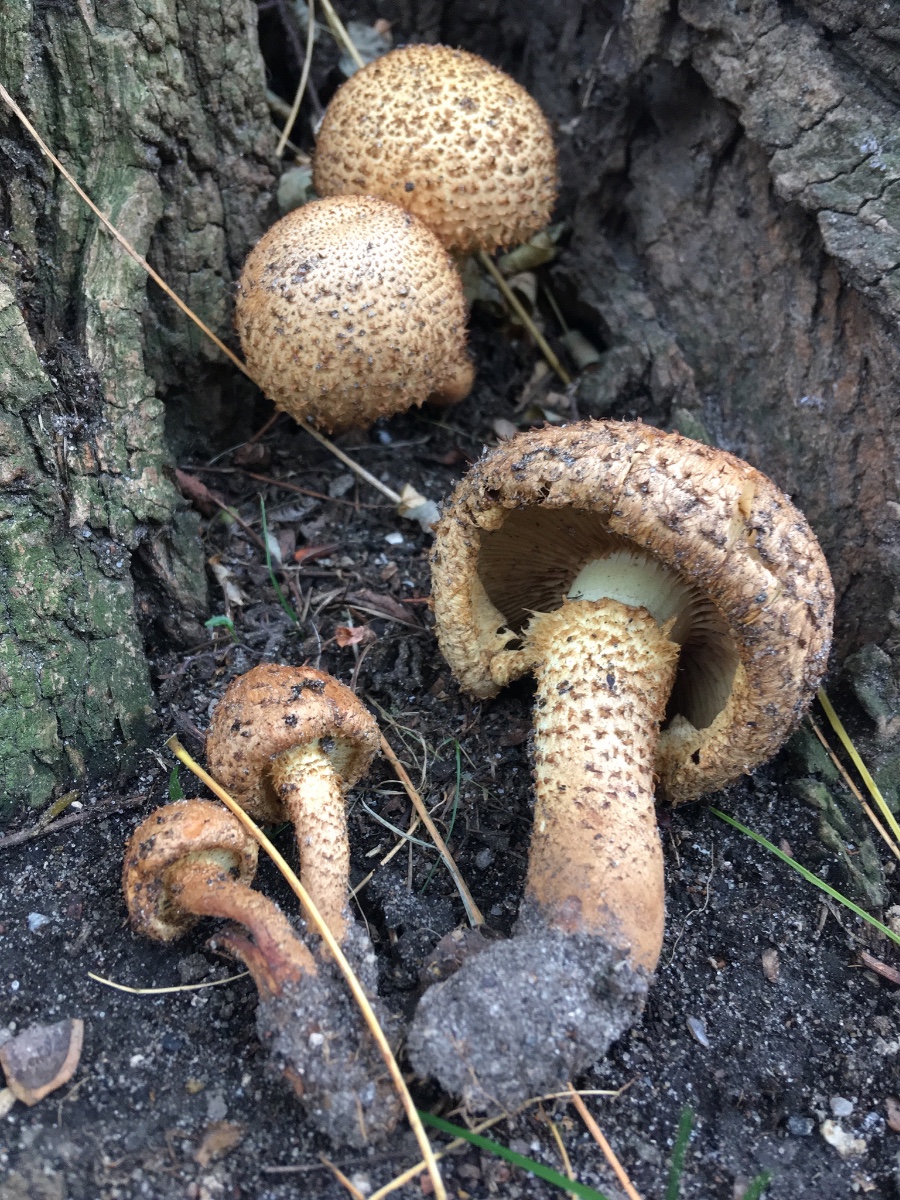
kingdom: Fungi
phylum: Basidiomycota
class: Agaricomycetes
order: Agaricales
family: Strophariaceae
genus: Pholiota
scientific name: Pholiota squarrosa
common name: krumskællet skælhat
